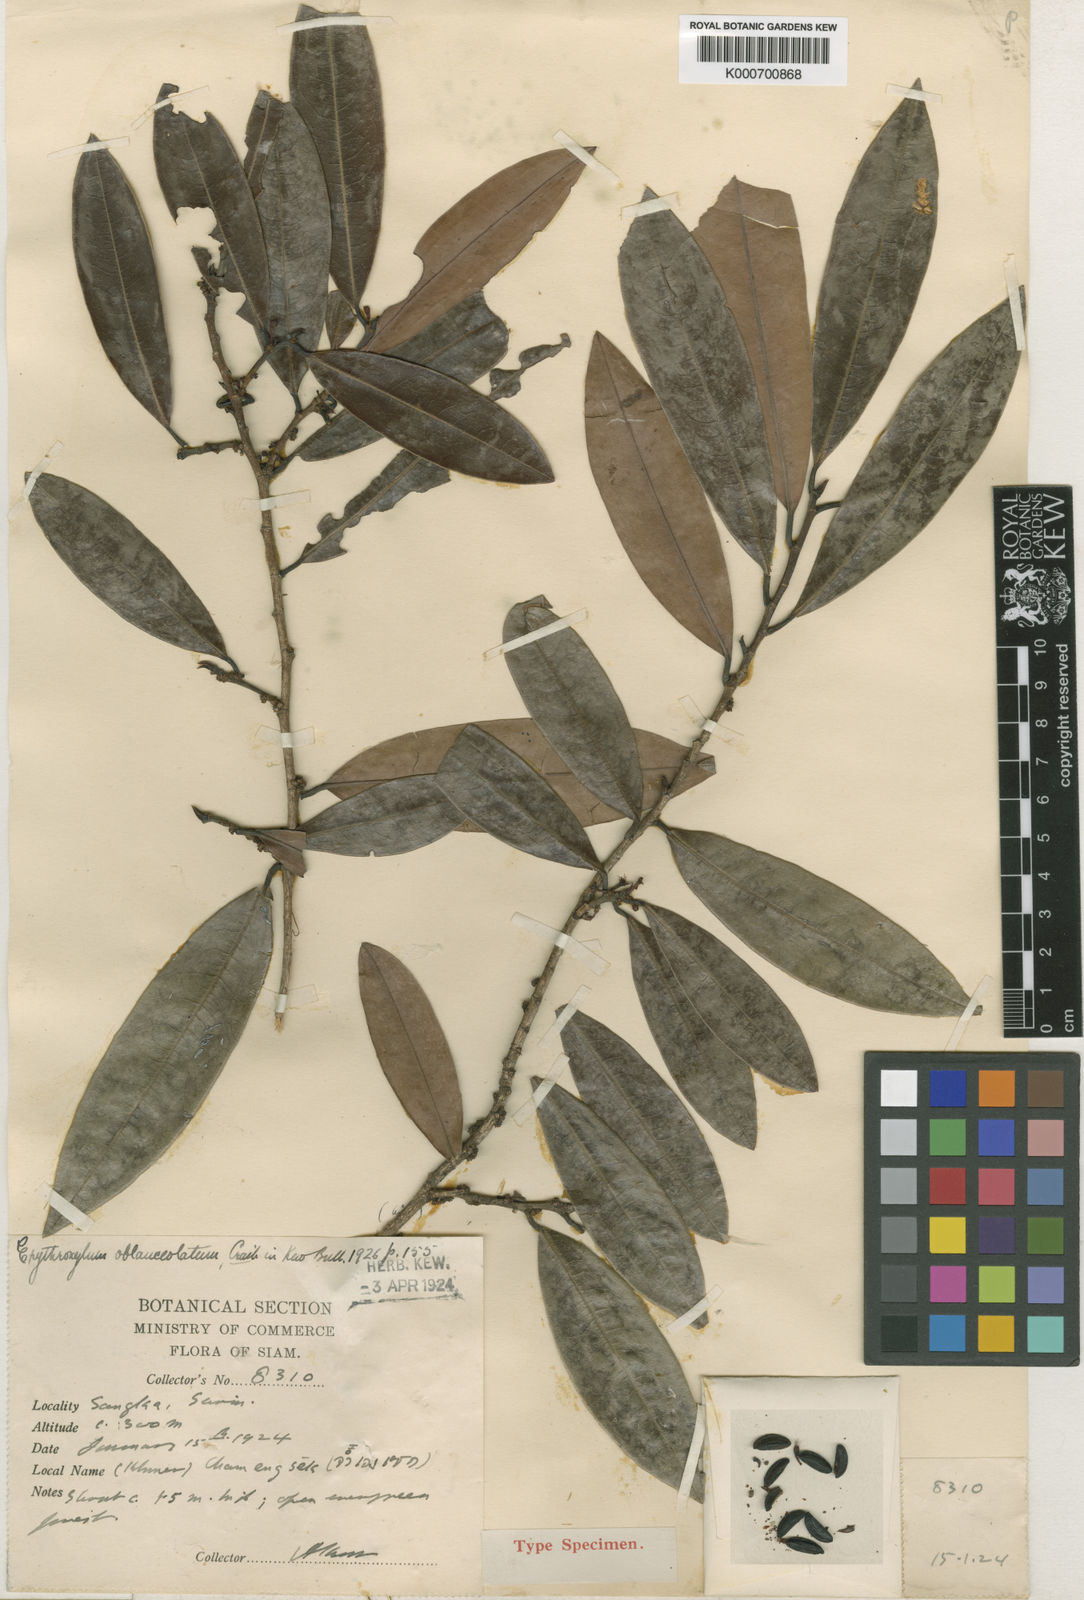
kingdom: Plantae
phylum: Tracheophyta
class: Magnoliopsida
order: Malpighiales
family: Erythroxylaceae
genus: Erythroxylum
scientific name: Erythroxylum cuneatum
